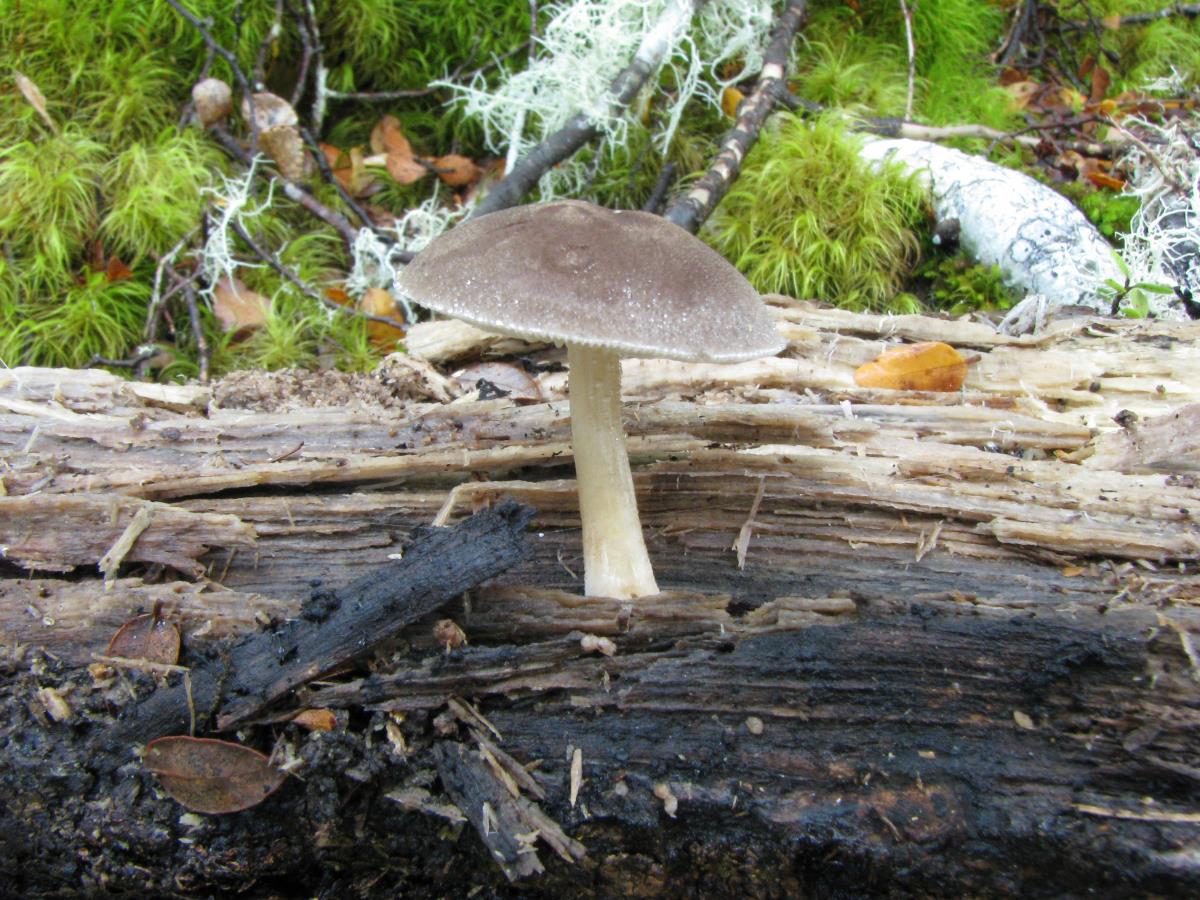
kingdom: Fungi
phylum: Basidiomycota
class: Agaricomycetes
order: Agaricales
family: Pluteaceae
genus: Pluteus
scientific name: Pluteus sabulosus
